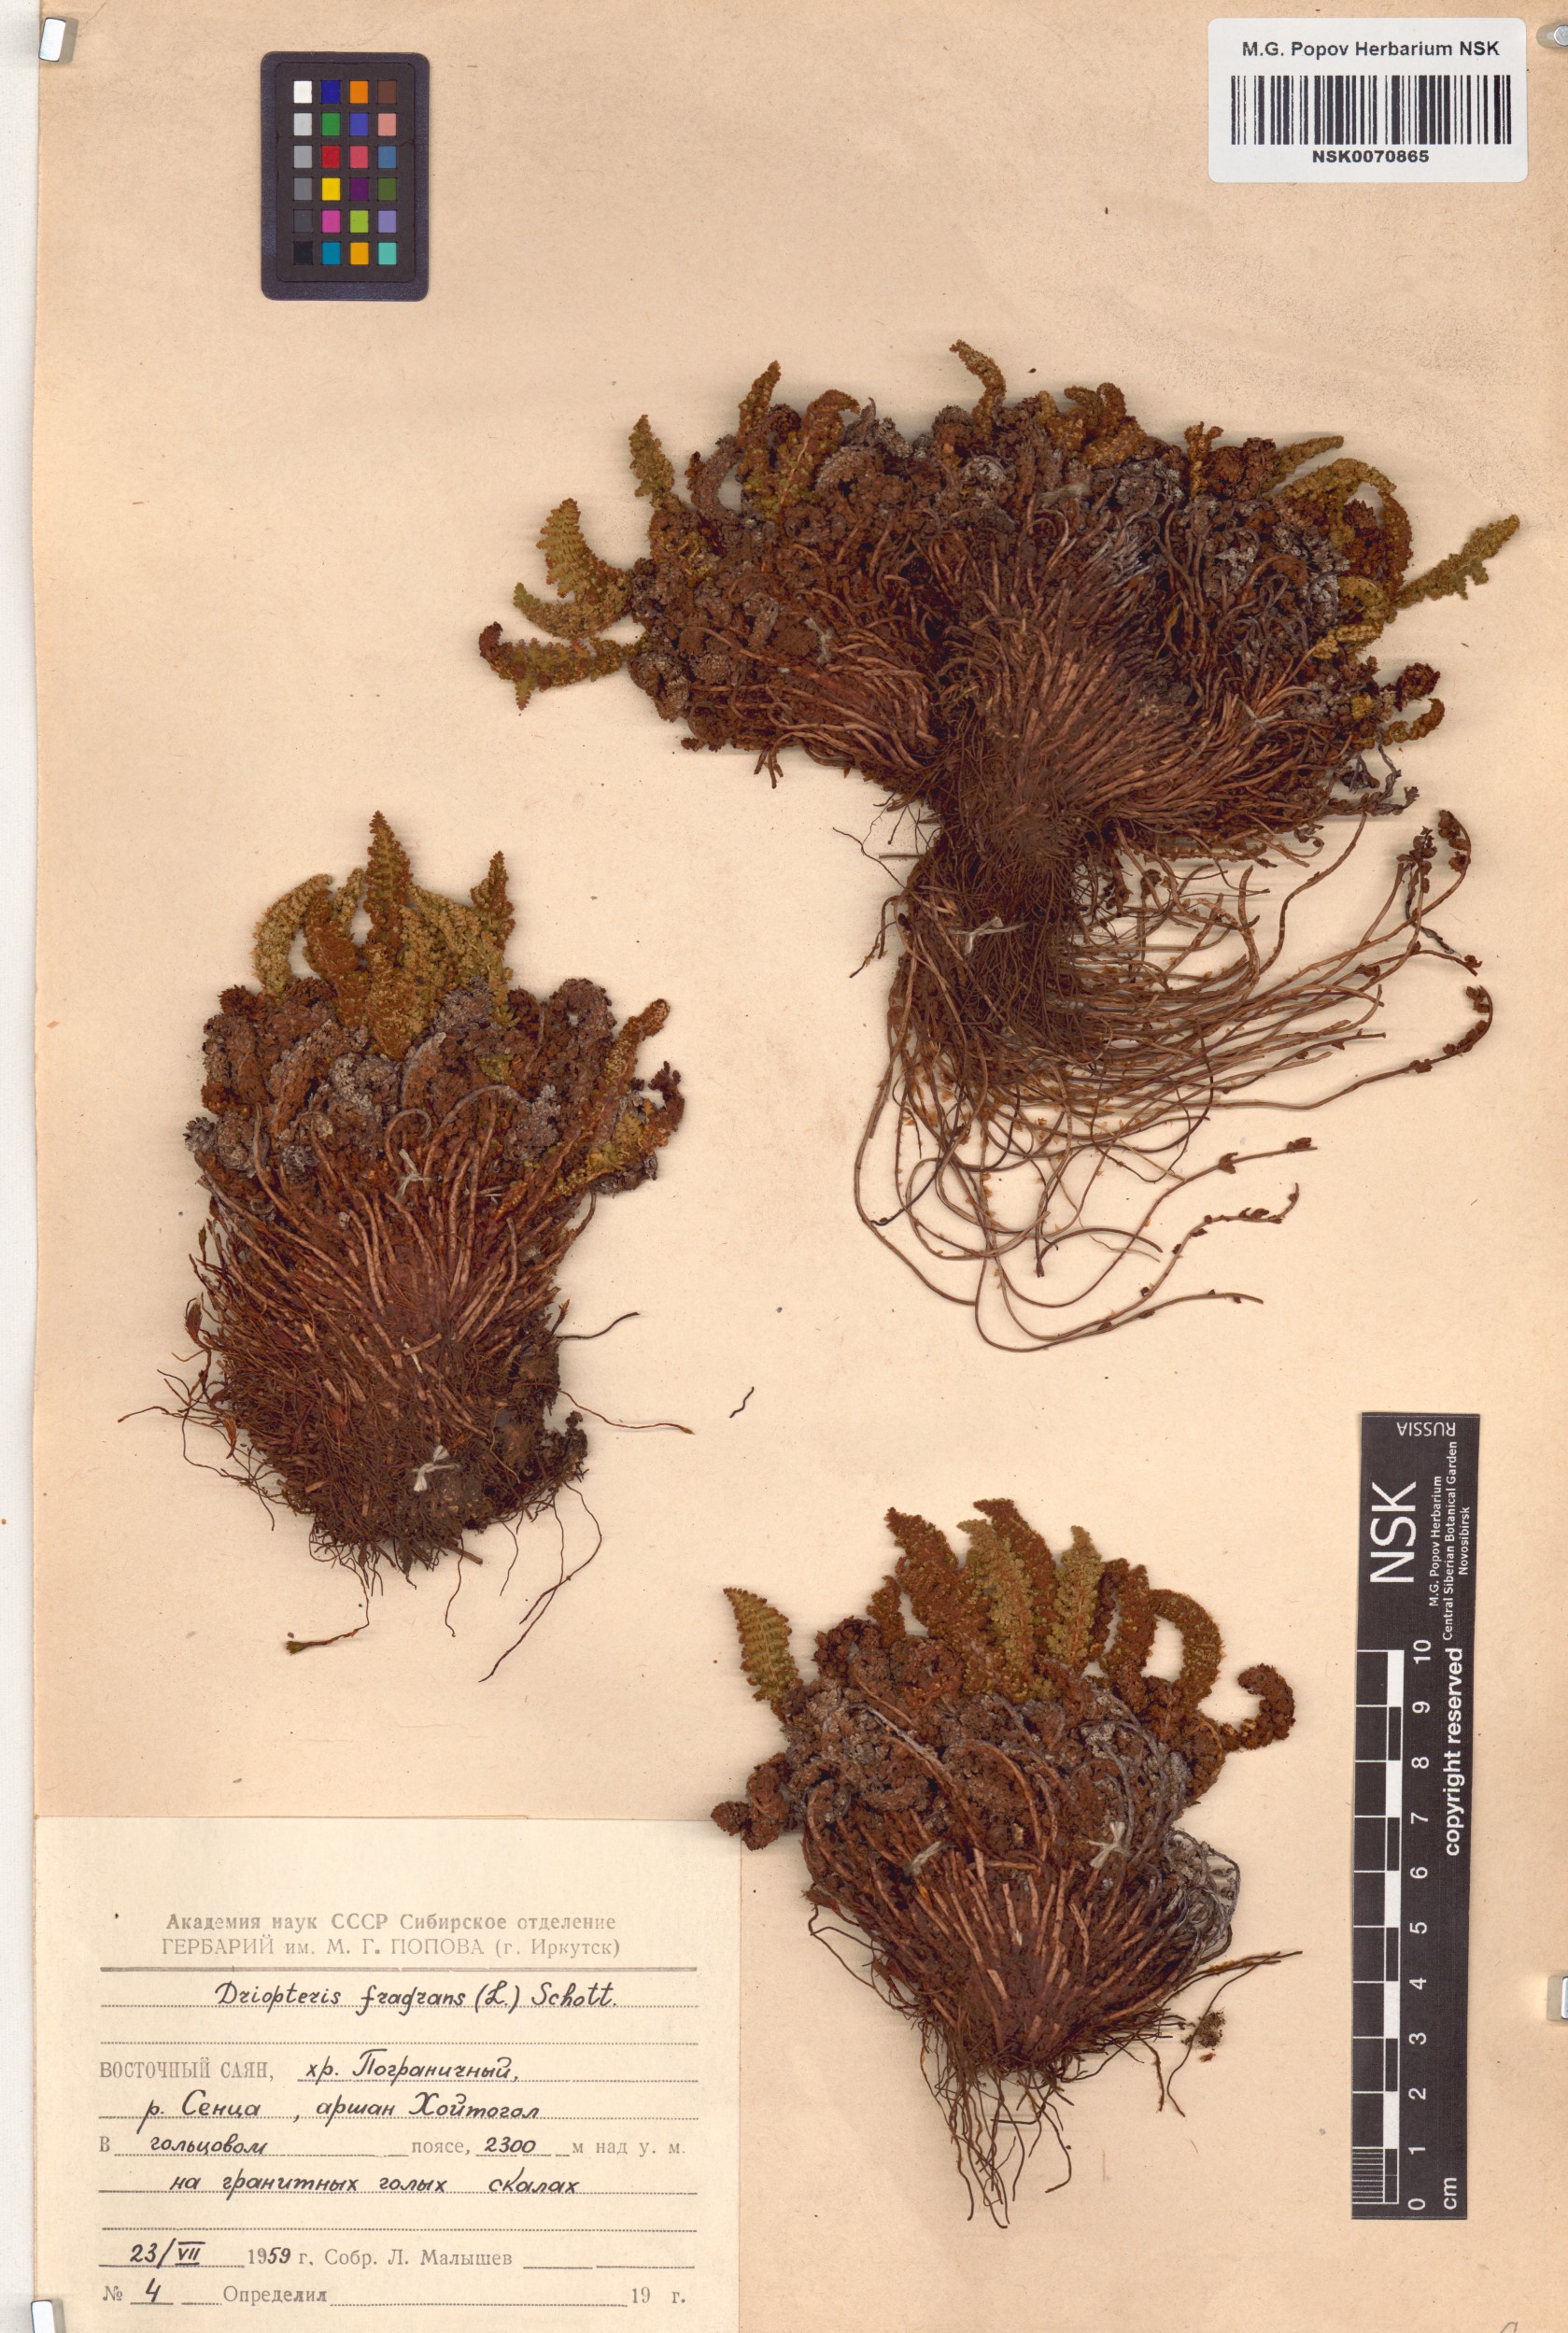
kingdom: Plantae
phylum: Tracheophyta
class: Polypodiopsida
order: Polypodiales
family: Dryopteridaceae
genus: Dryopteris
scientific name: Dryopteris fragrans
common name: Fragrant wood fern
